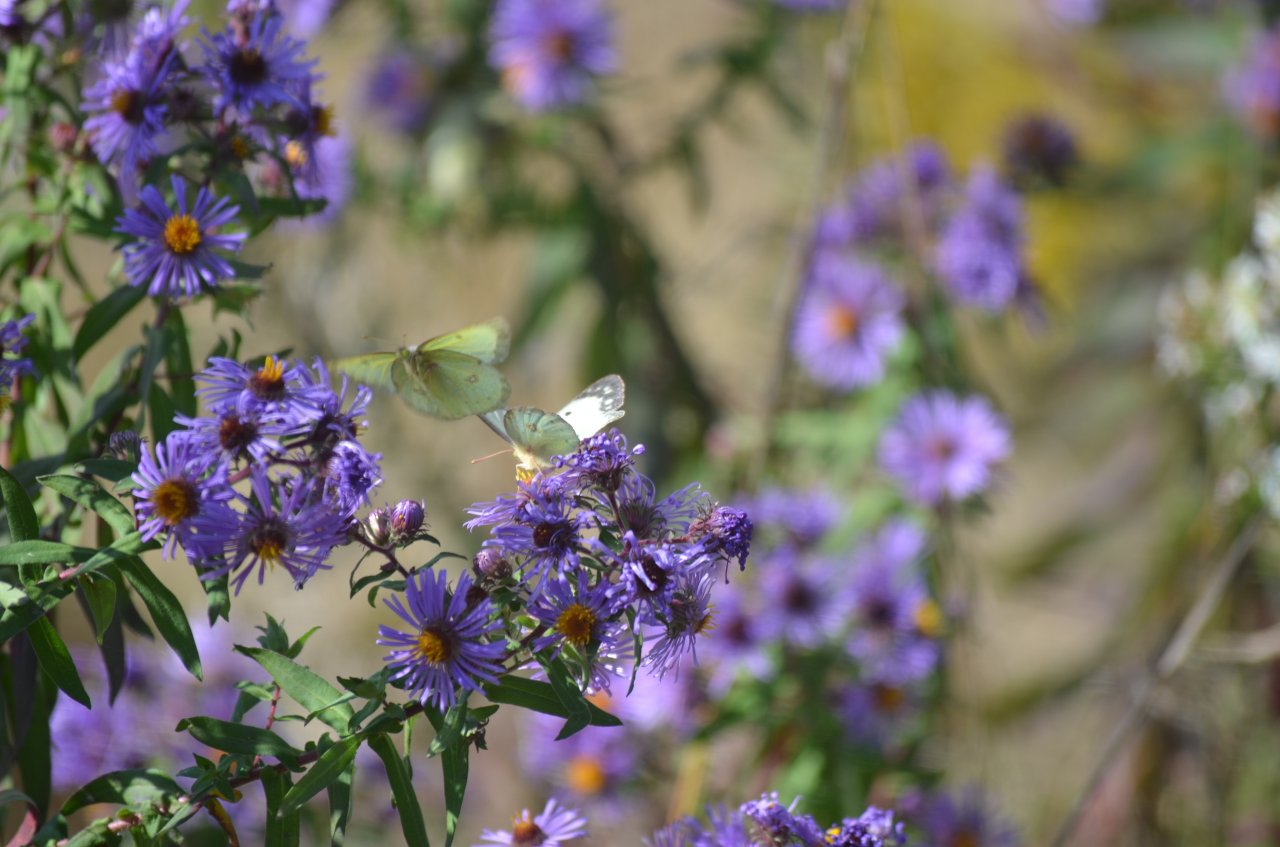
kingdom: Animalia
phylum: Arthropoda
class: Insecta
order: Lepidoptera
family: Pieridae
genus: Pieris
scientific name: Pieris rapae
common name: Cabbage White
